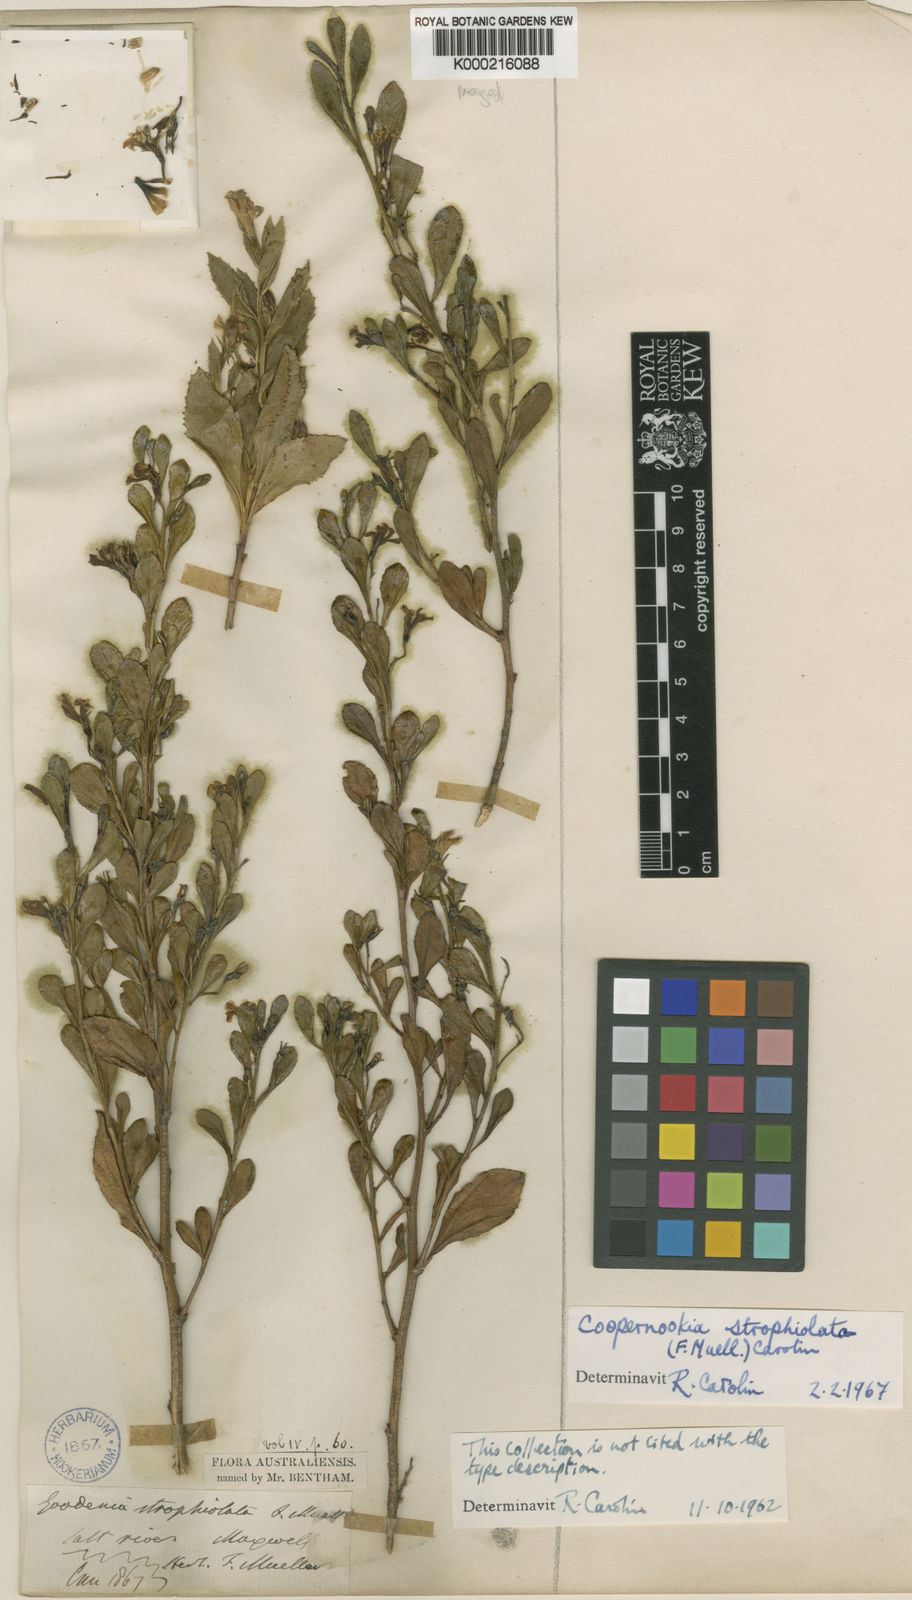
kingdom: Plantae
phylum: Tracheophyta
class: Magnoliopsida
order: Asterales
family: Goodeniaceae
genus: Goodenia
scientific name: Goodenia strophiolata
